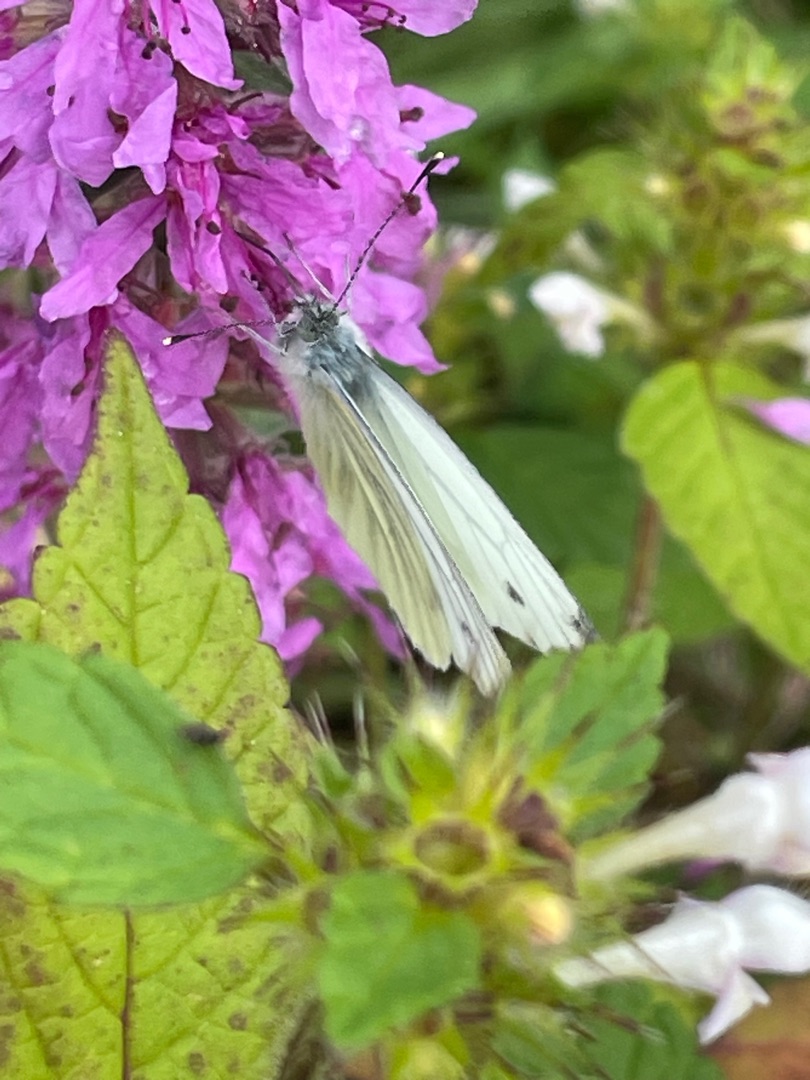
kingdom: Animalia
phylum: Arthropoda
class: Insecta
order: Lepidoptera
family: Pieridae
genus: Pieris
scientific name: Pieris napi
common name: Grønåret kålsommerfugl
